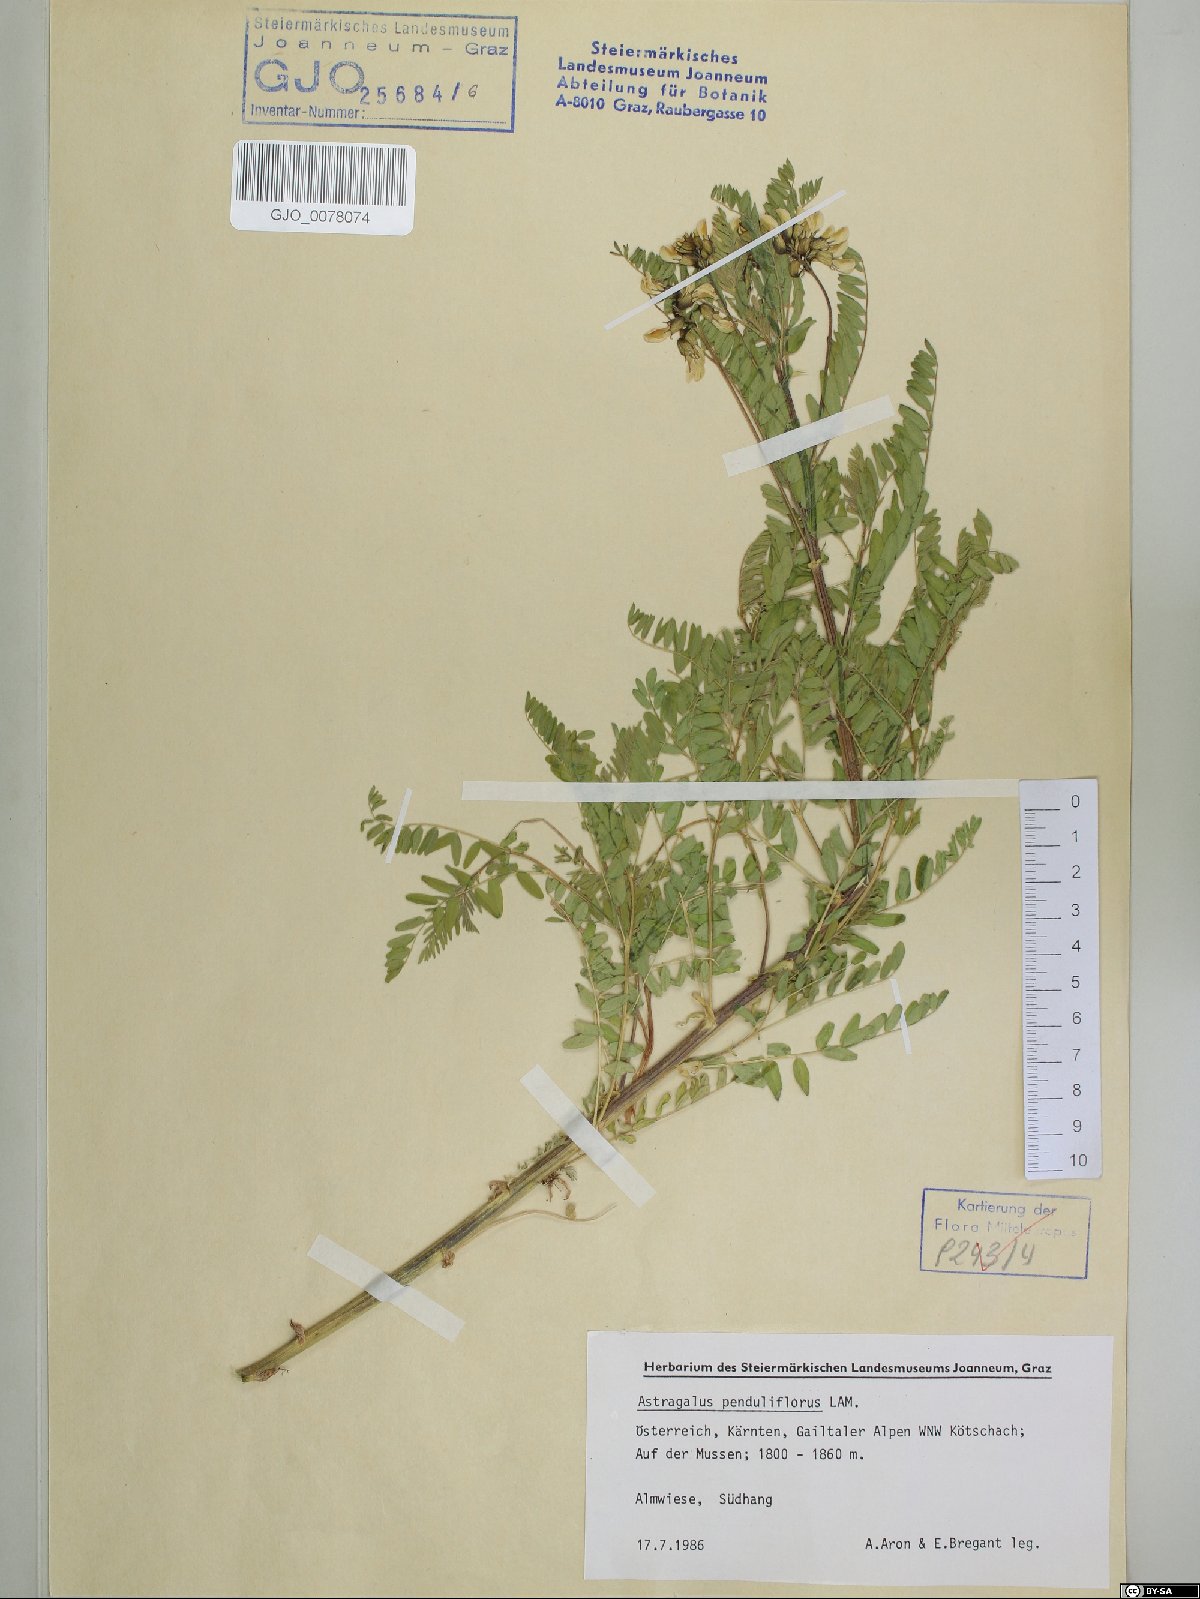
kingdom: Plantae
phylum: Tracheophyta
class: Magnoliopsida
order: Fabales
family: Fabaceae
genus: Astragalus
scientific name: Astragalus penduliflorus
